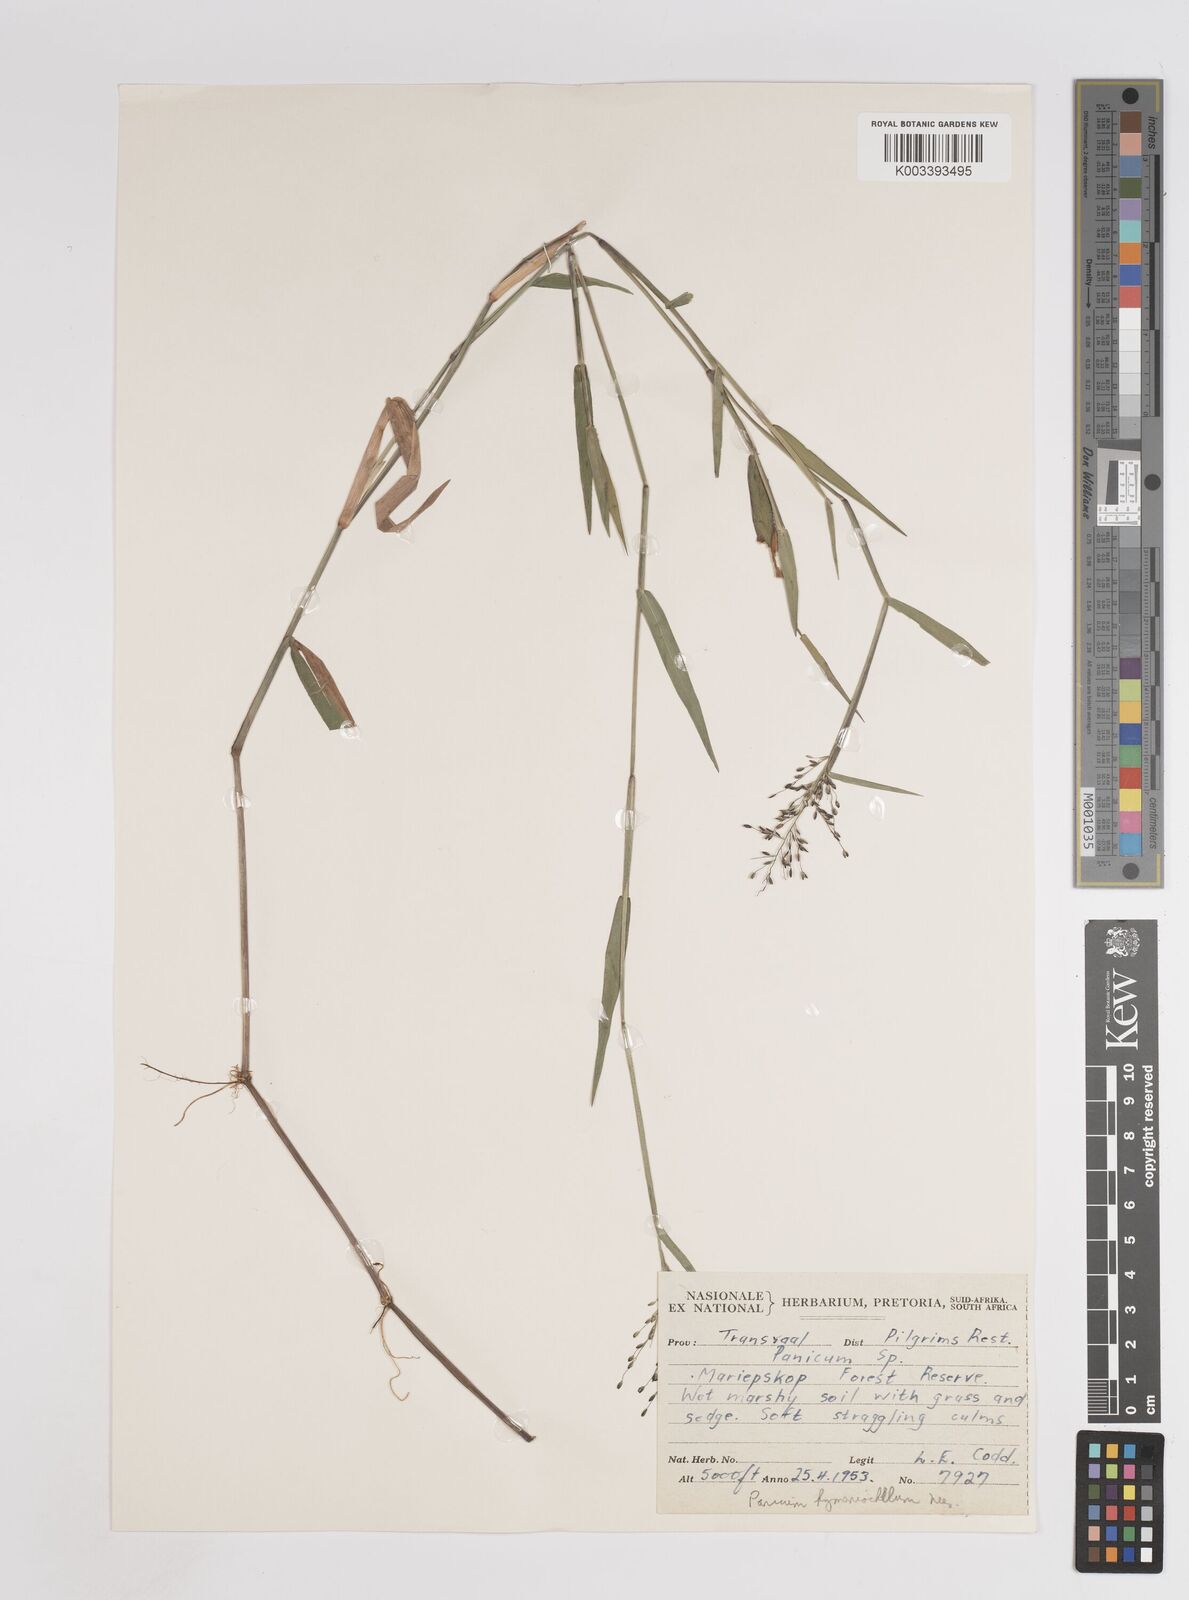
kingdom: Plantae
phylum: Tracheophyta
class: Liliopsida
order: Poales
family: Poaceae
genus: Adenochloa
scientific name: Adenochloa hymeniochila
